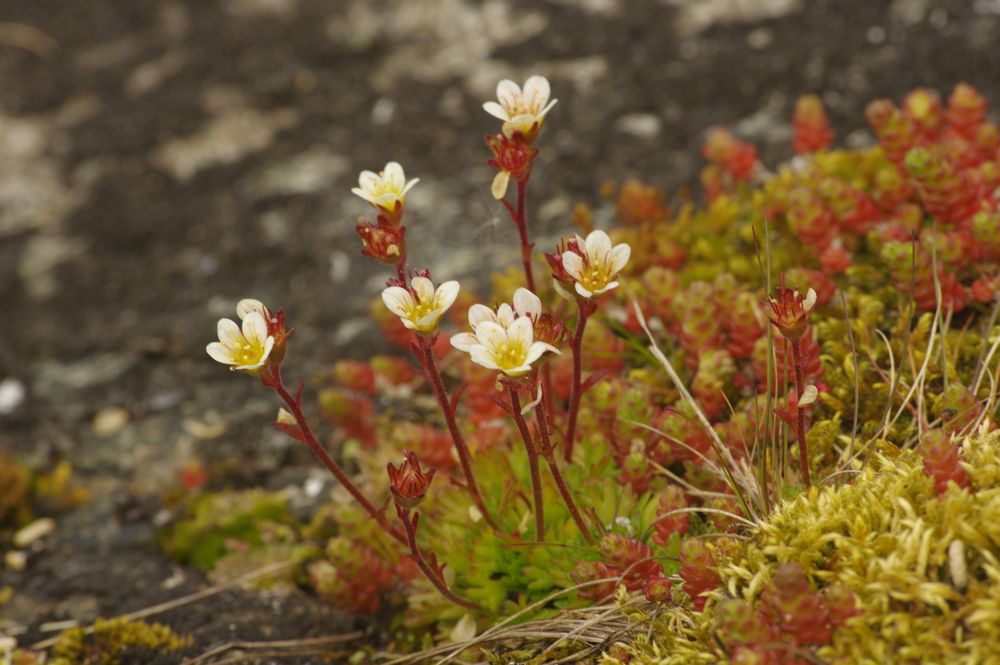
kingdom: Plantae
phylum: Tracheophyta
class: Magnoliopsida
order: Saxifragales
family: Saxifragaceae
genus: Saxifraga
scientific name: Saxifraga cespitosa
